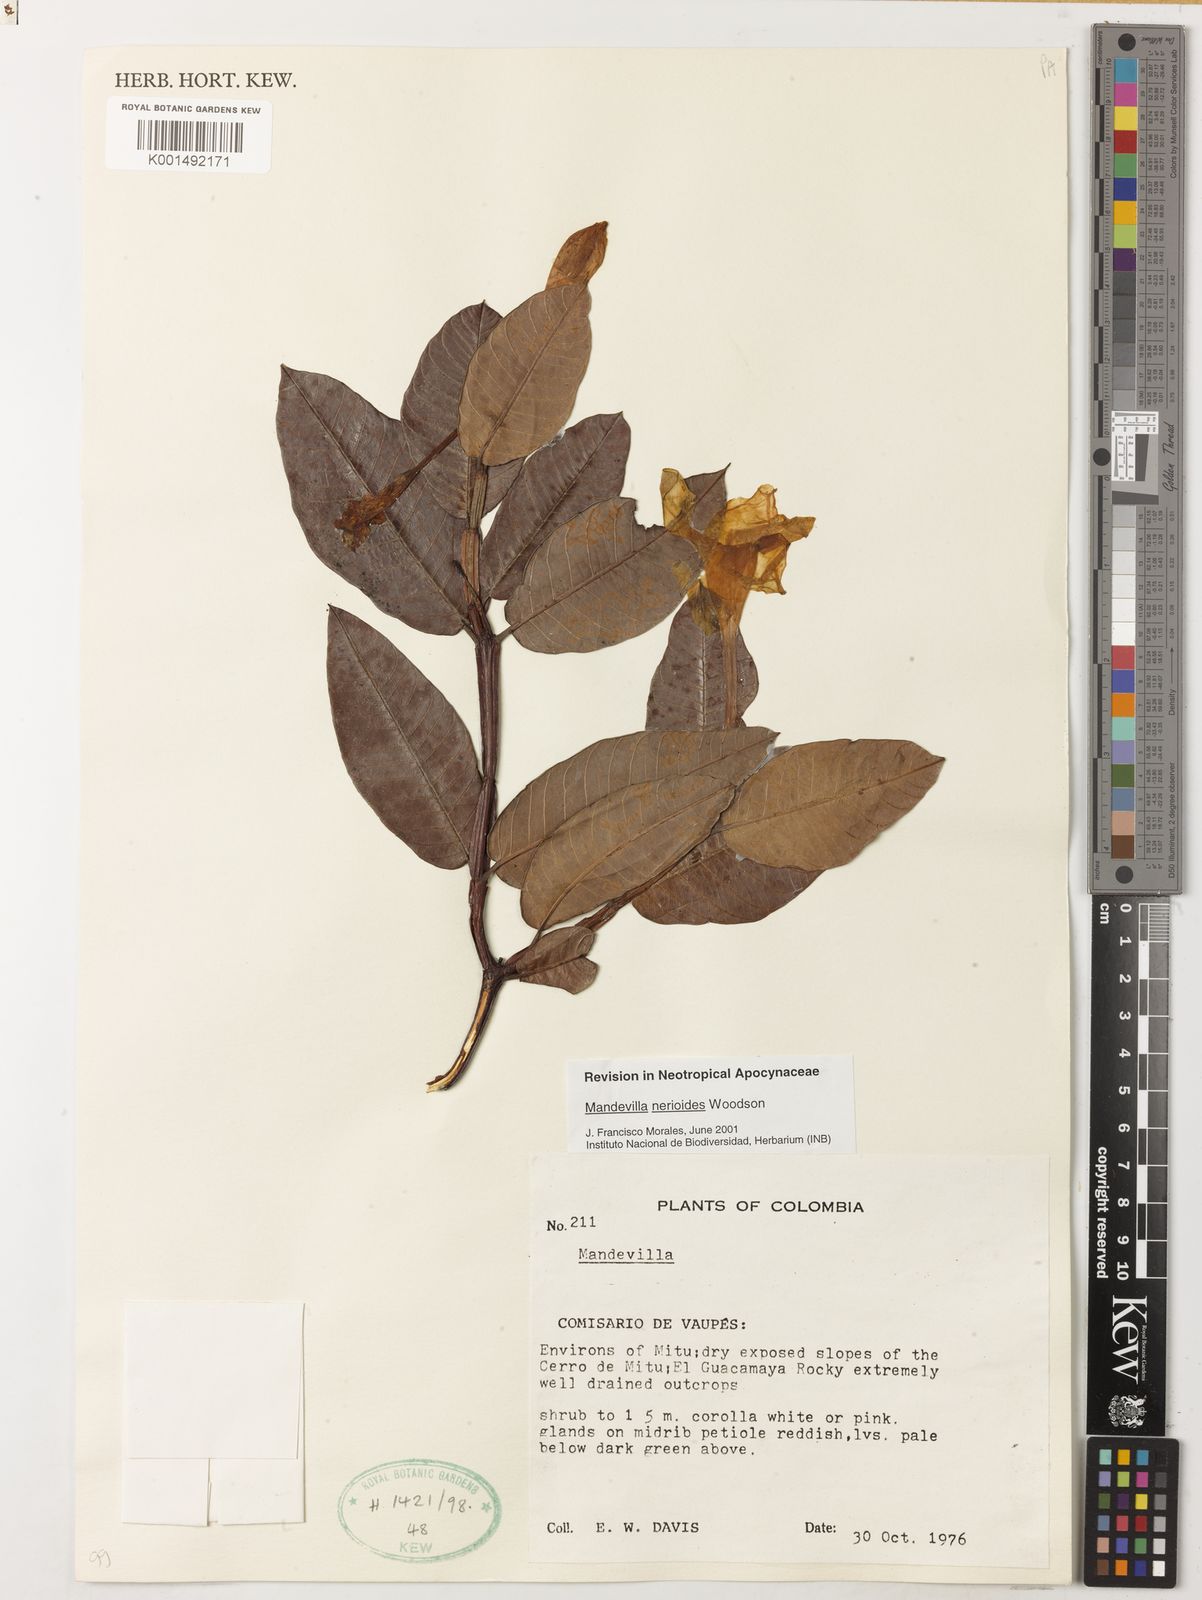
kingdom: Plantae
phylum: Tracheophyta
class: Magnoliopsida
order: Gentianales
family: Apocynaceae
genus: Mandevilla
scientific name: Mandevilla nerioides
